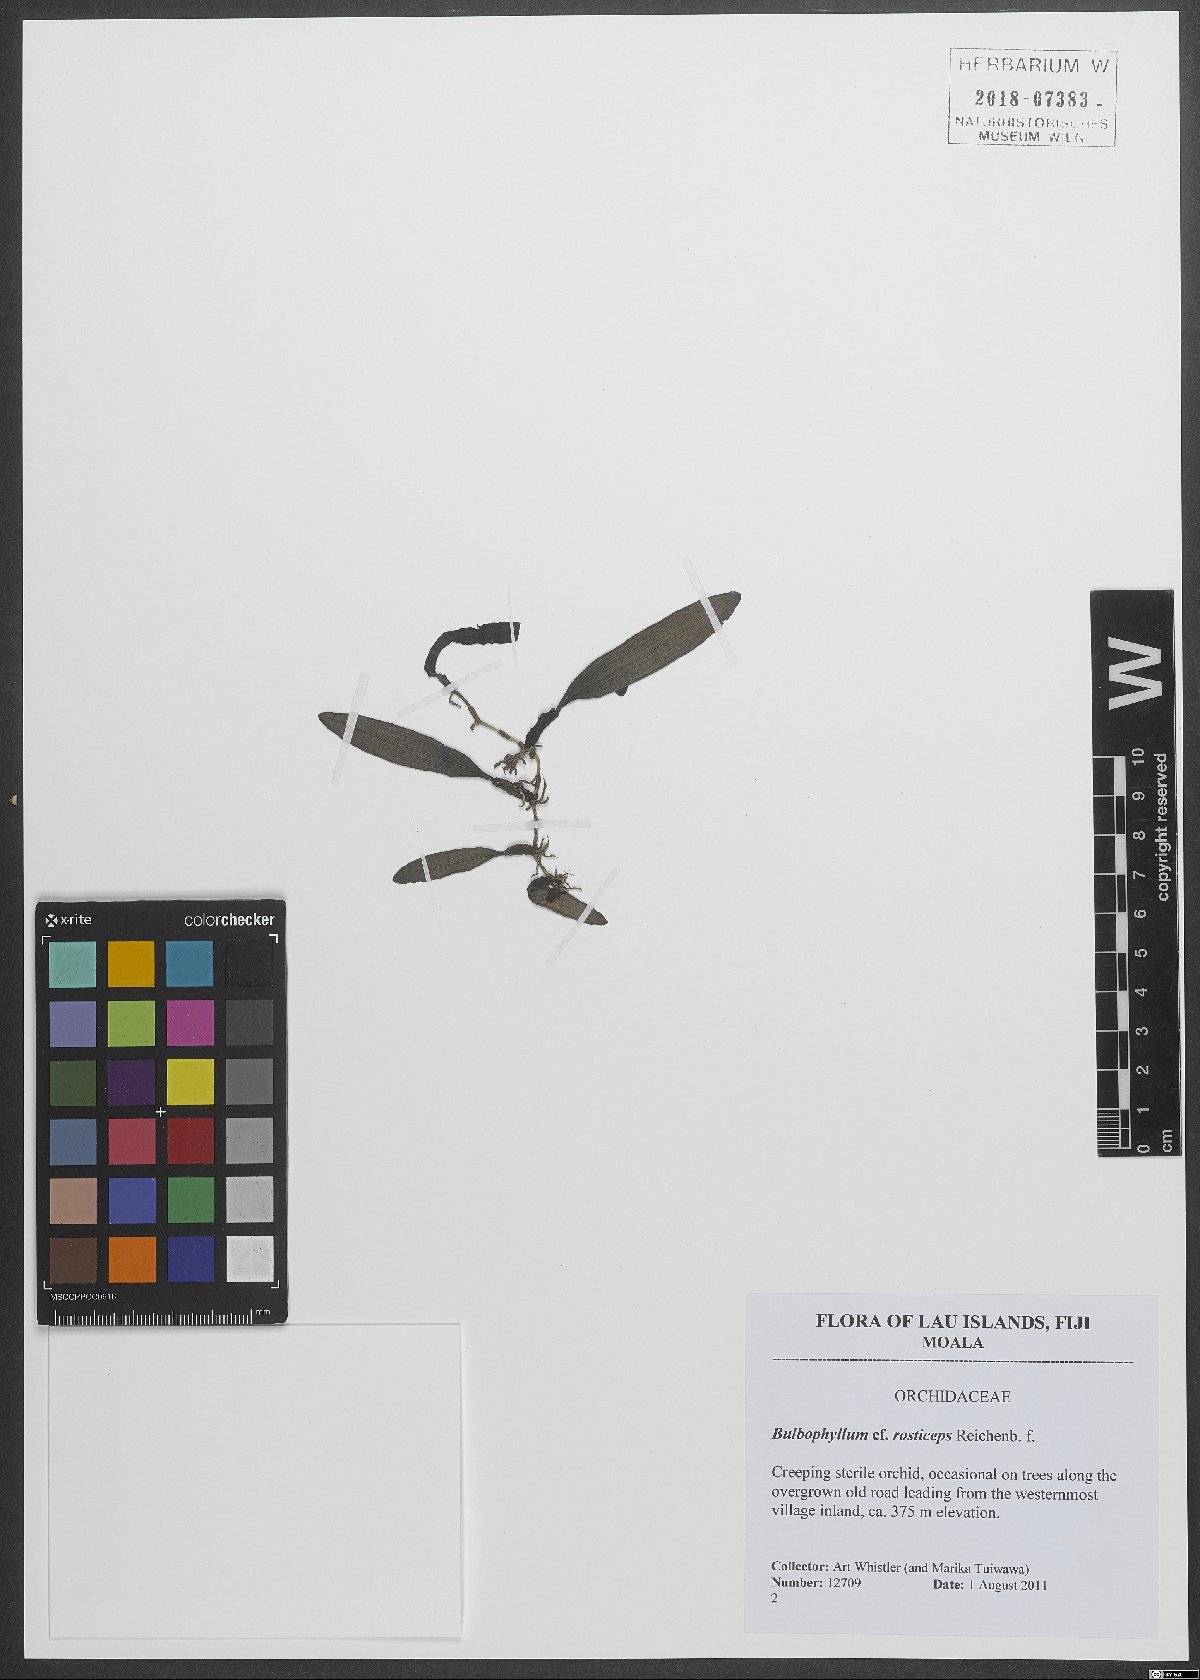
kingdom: Plantae
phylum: Tracheophyta
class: Liliopsida
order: Asparagales
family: Orchidaceae
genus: Bulbophyllum
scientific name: Bulbophyllum rostriceps
